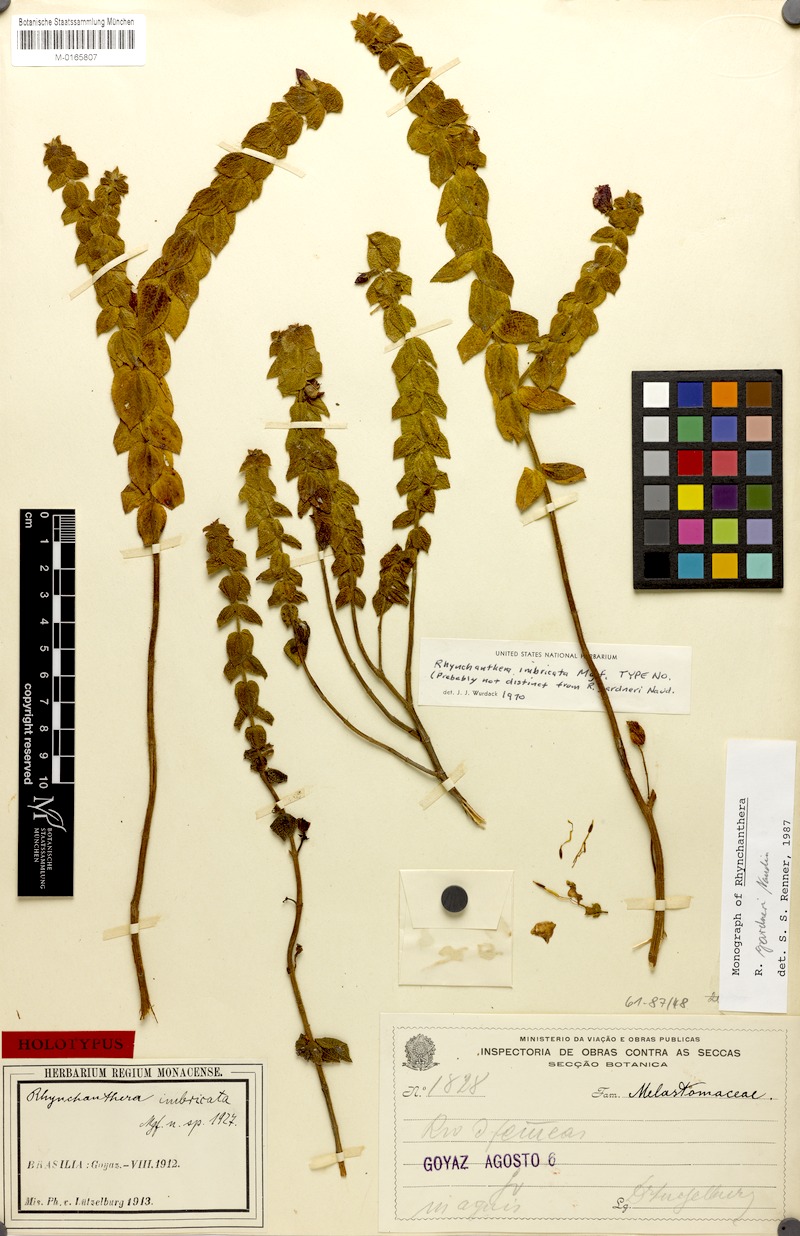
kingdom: Plantae
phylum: Tracheophyta
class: Magnoliopsida
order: Myrtales
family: Melastomataceae
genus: Rhynchanthera
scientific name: Rhynchanthera gardneri
